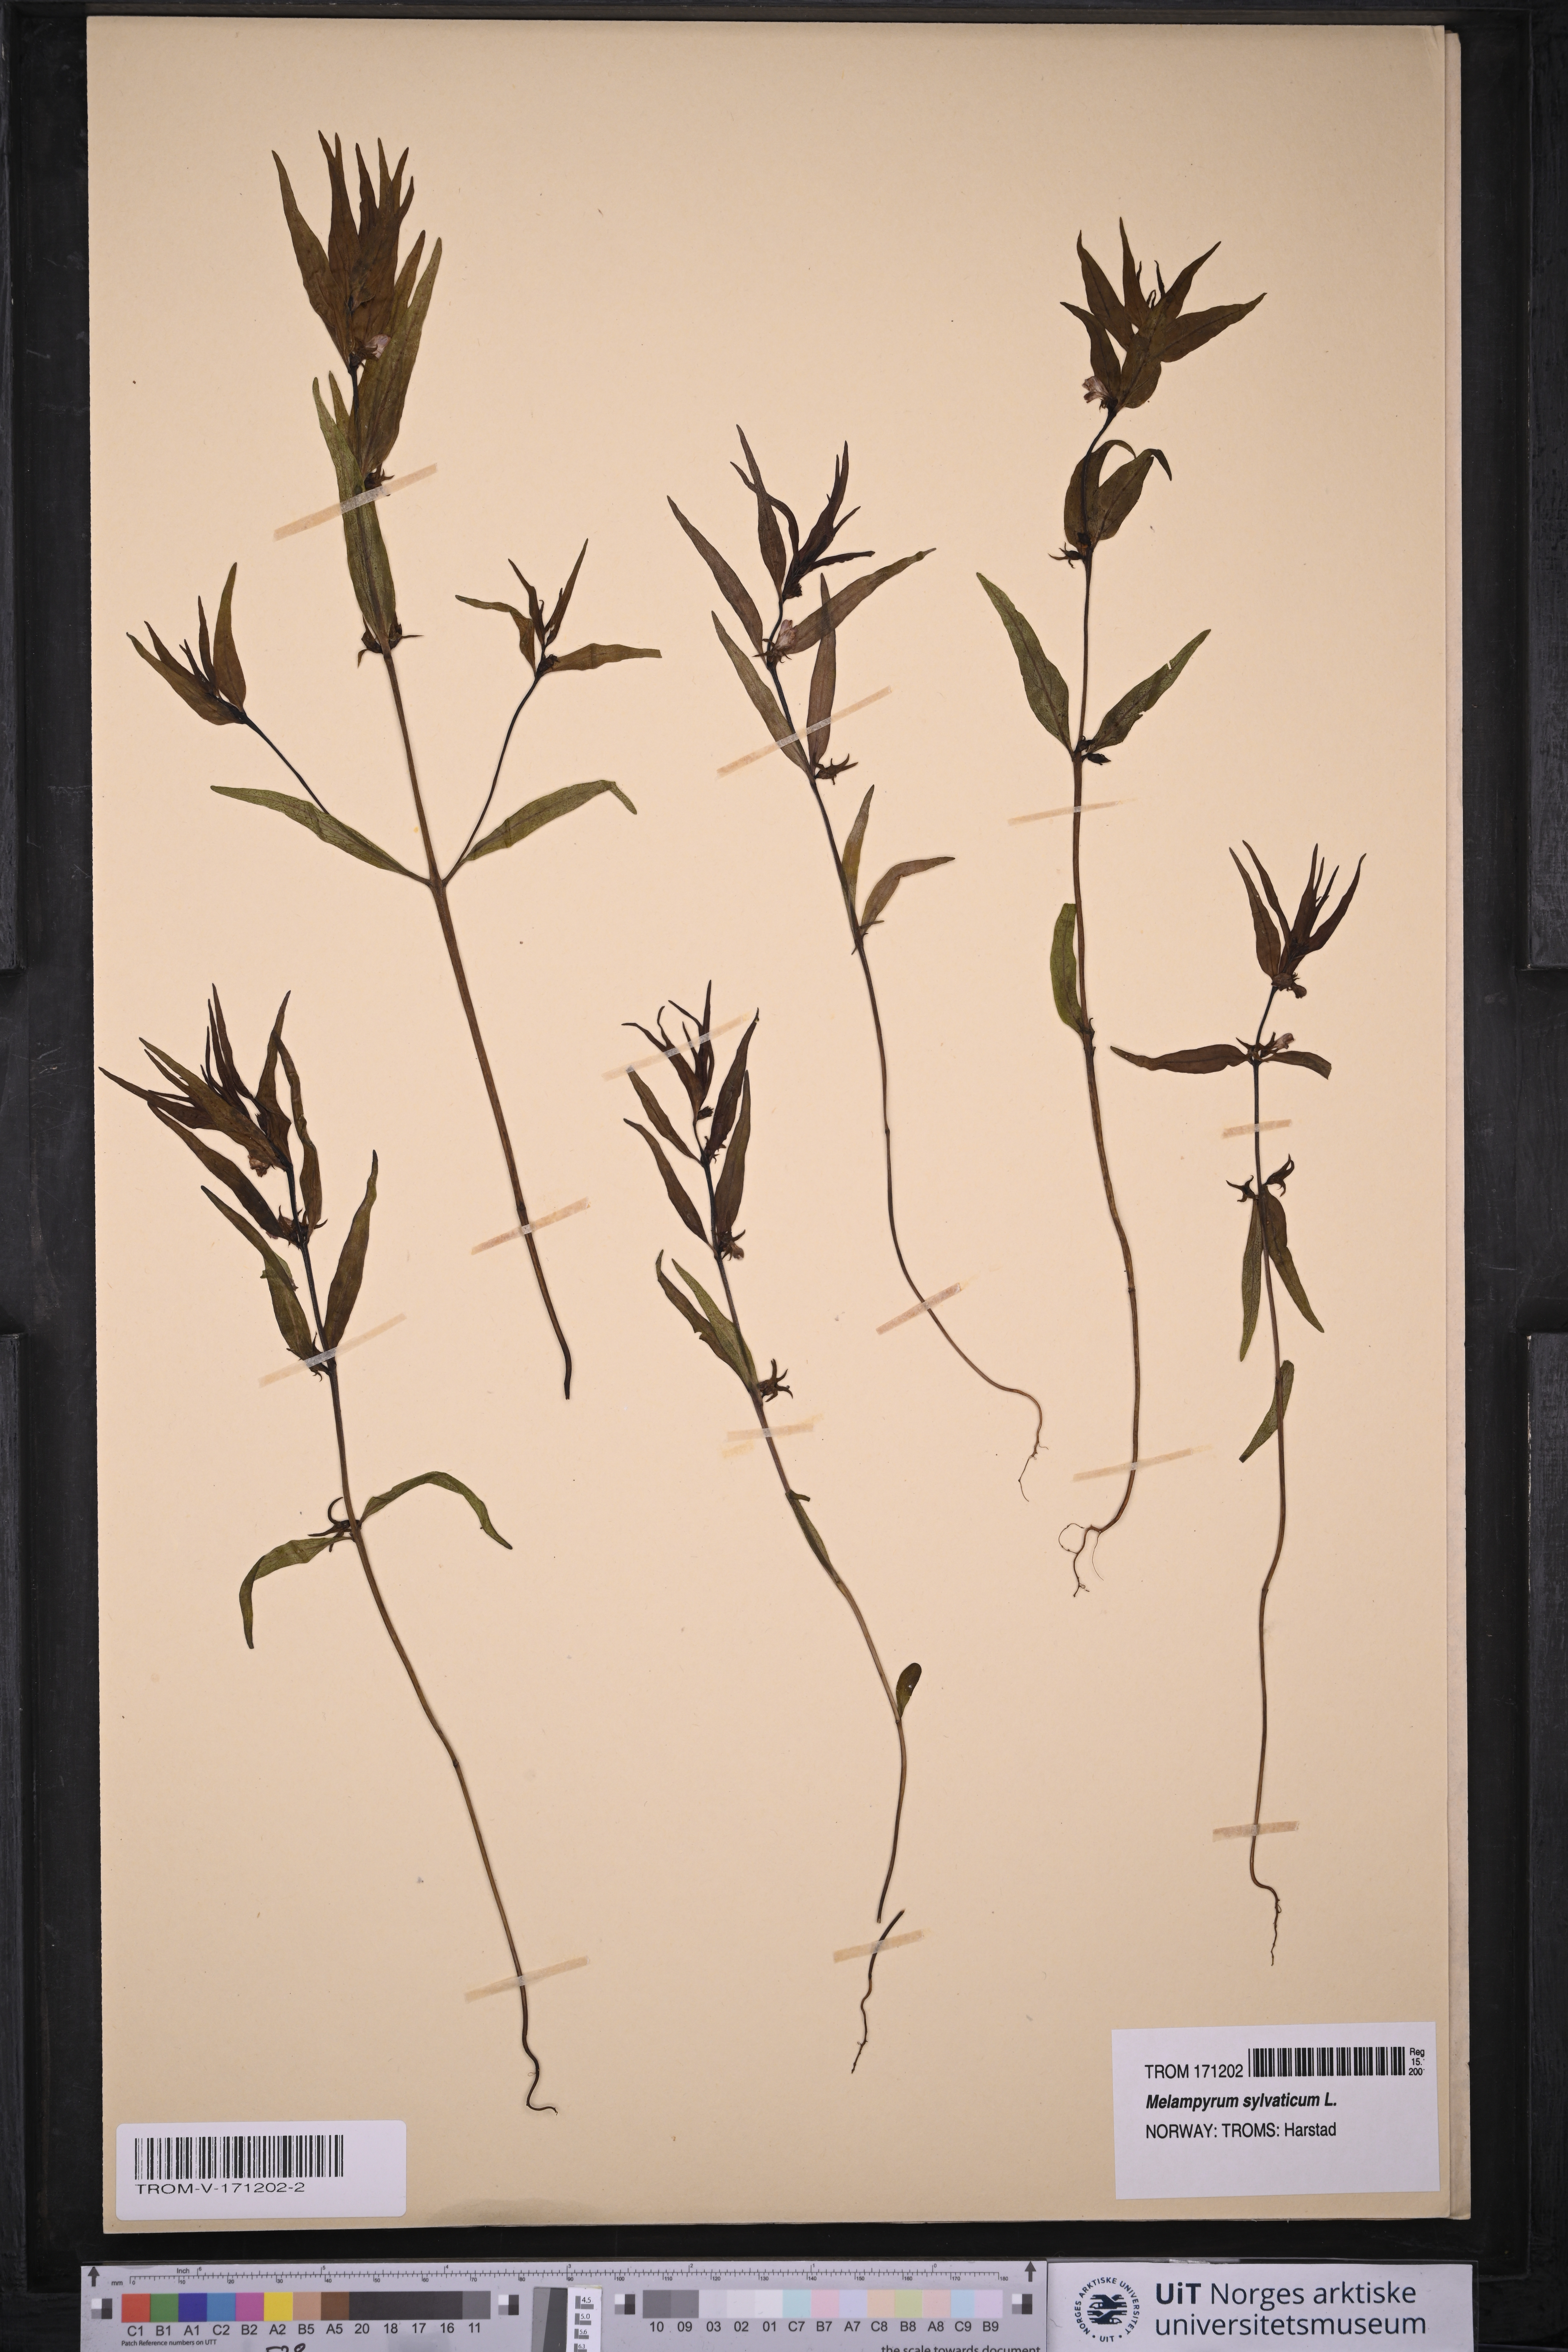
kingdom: Plantae
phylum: Tracheophyta
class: Magnoliopsida
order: Lamiales
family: Orobanchaceae
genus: Melampyrum
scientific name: Melampyrum sylvaticum
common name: Small cow-wheat
